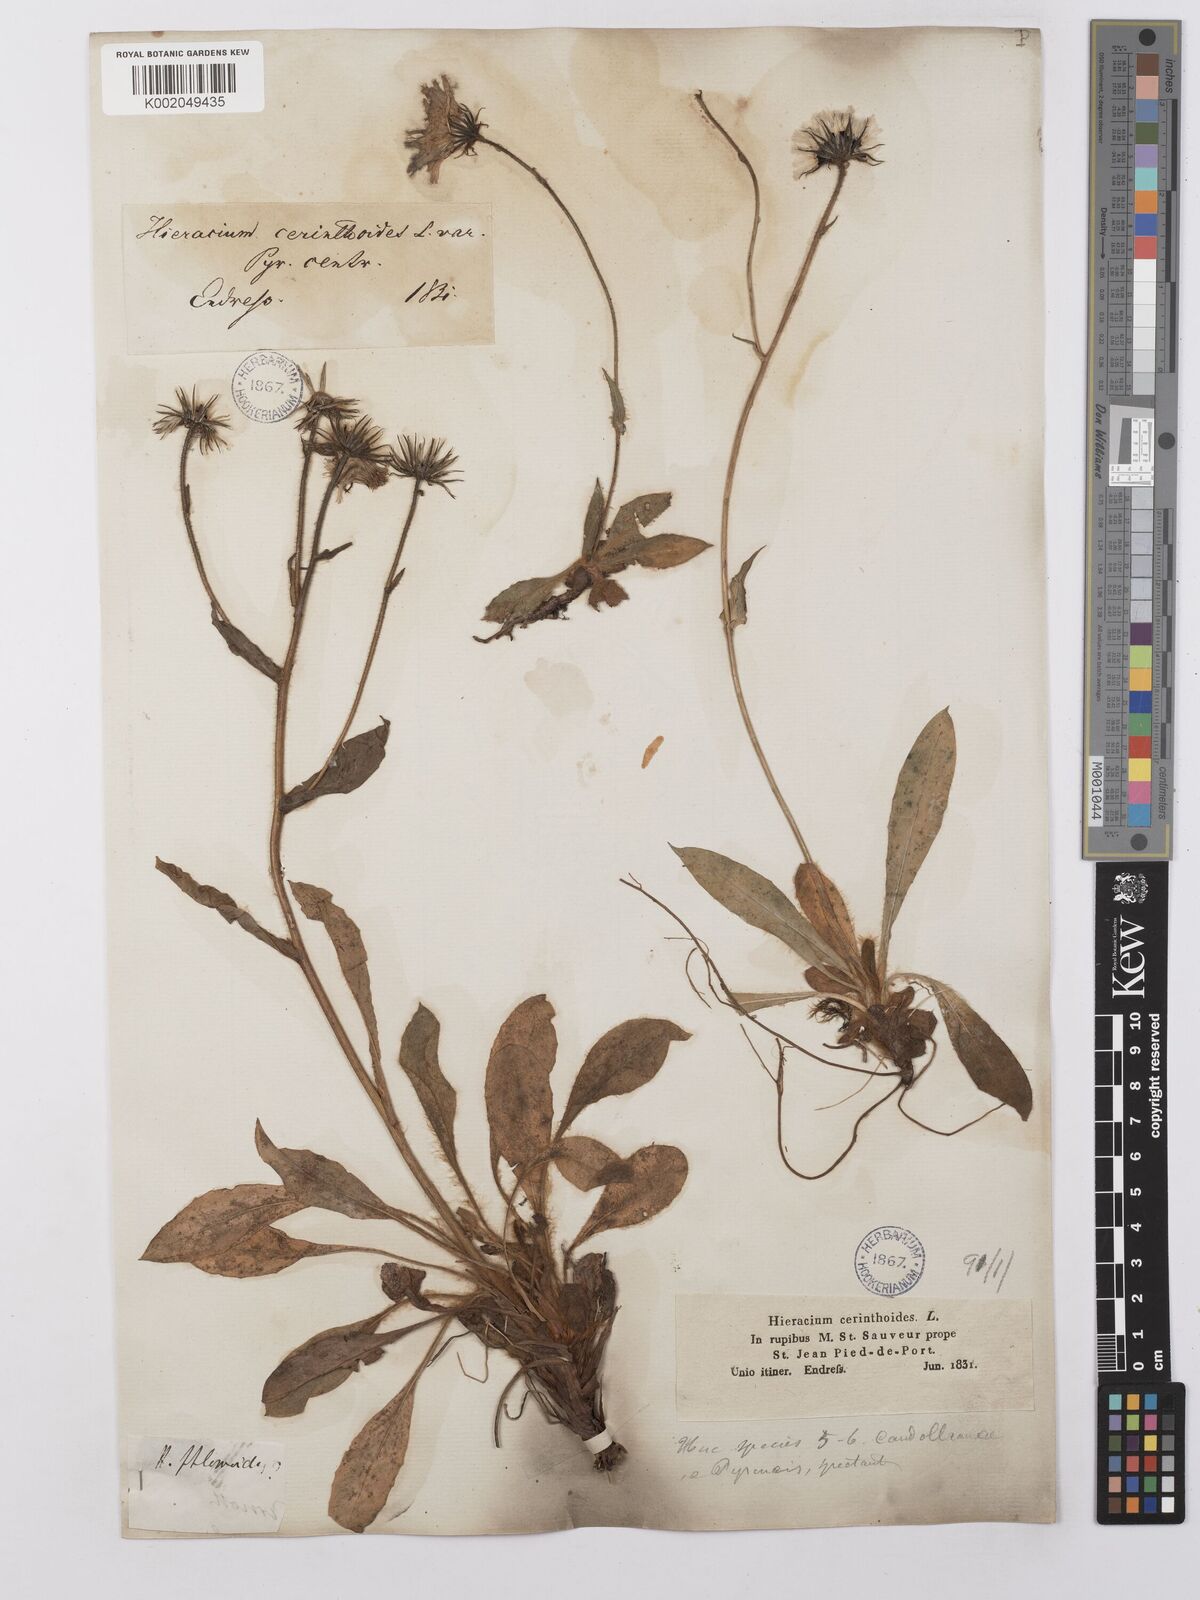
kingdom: Plantae
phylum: Tracheophyta
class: Magnoliopsida
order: Asterales
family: Asteraceae
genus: Hieracium
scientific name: Hieracium ramondii
